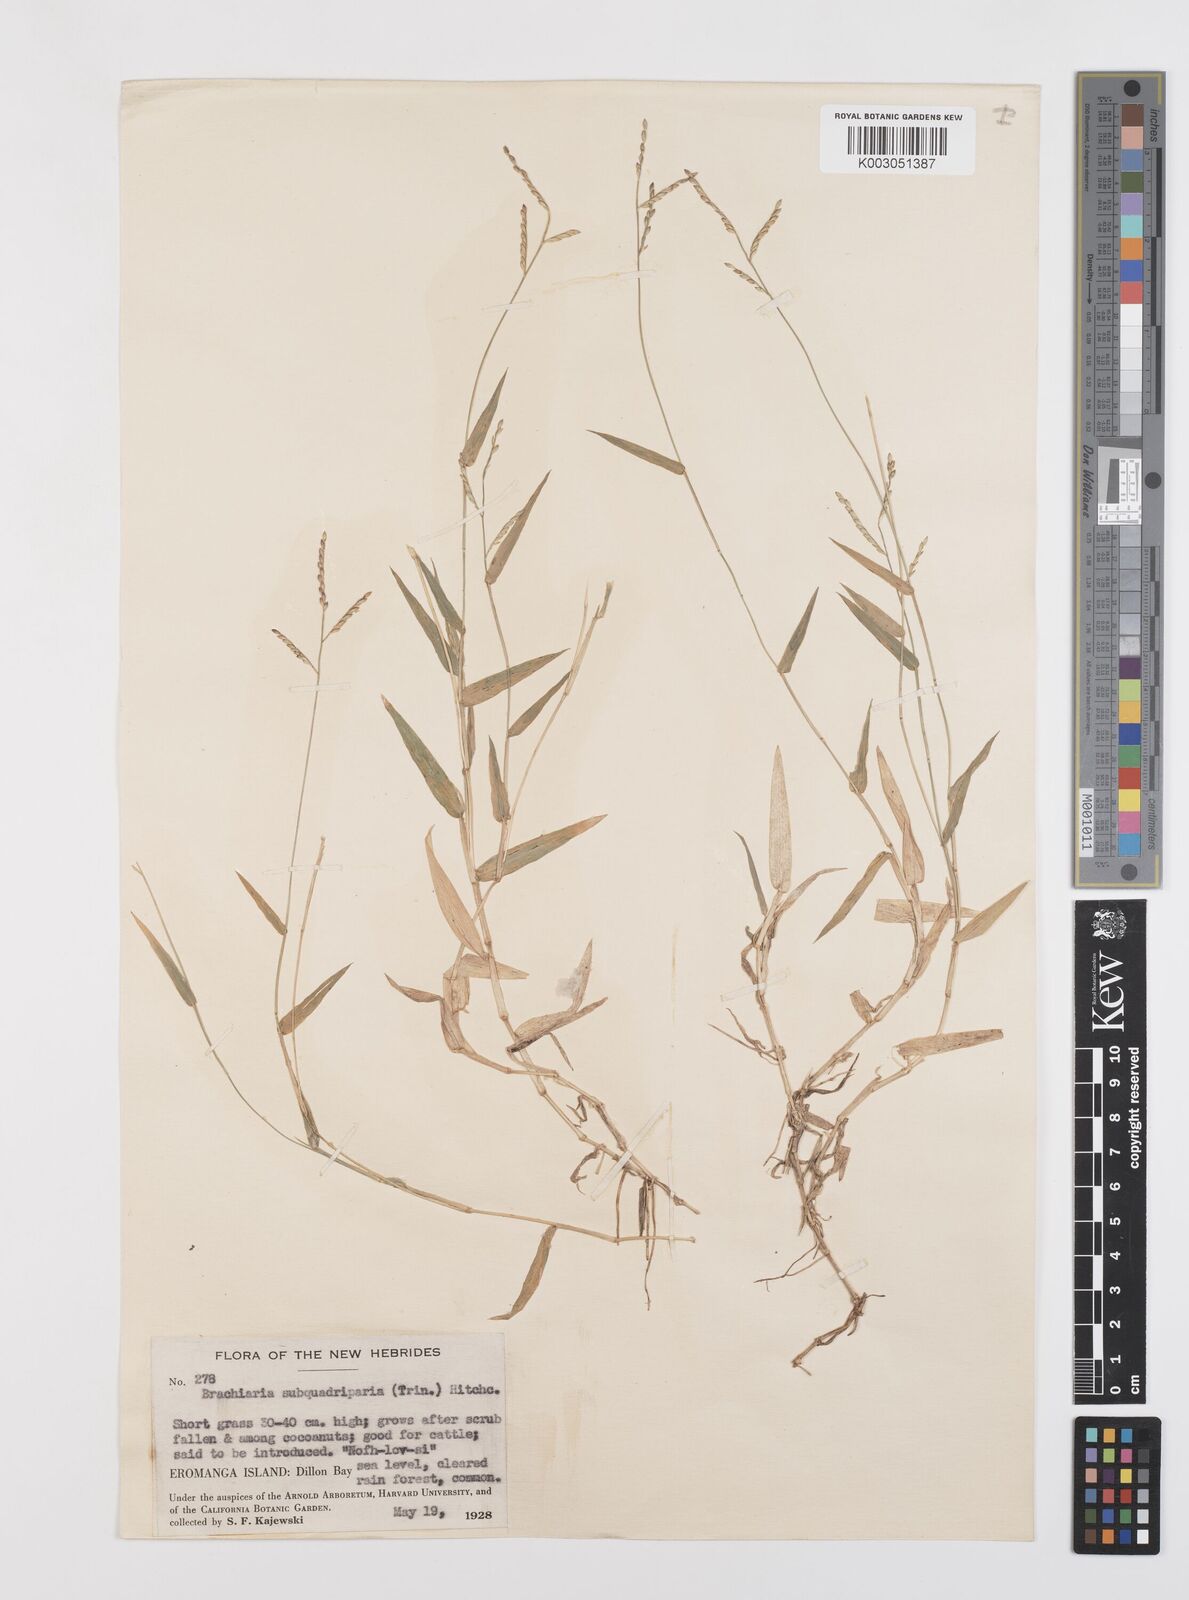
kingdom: Plantae
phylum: Tracheophyta
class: Liliopsida
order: Poales
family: Poaceae
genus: Urochloa
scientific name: Urochloa subquadripara
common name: Armgrass millet
